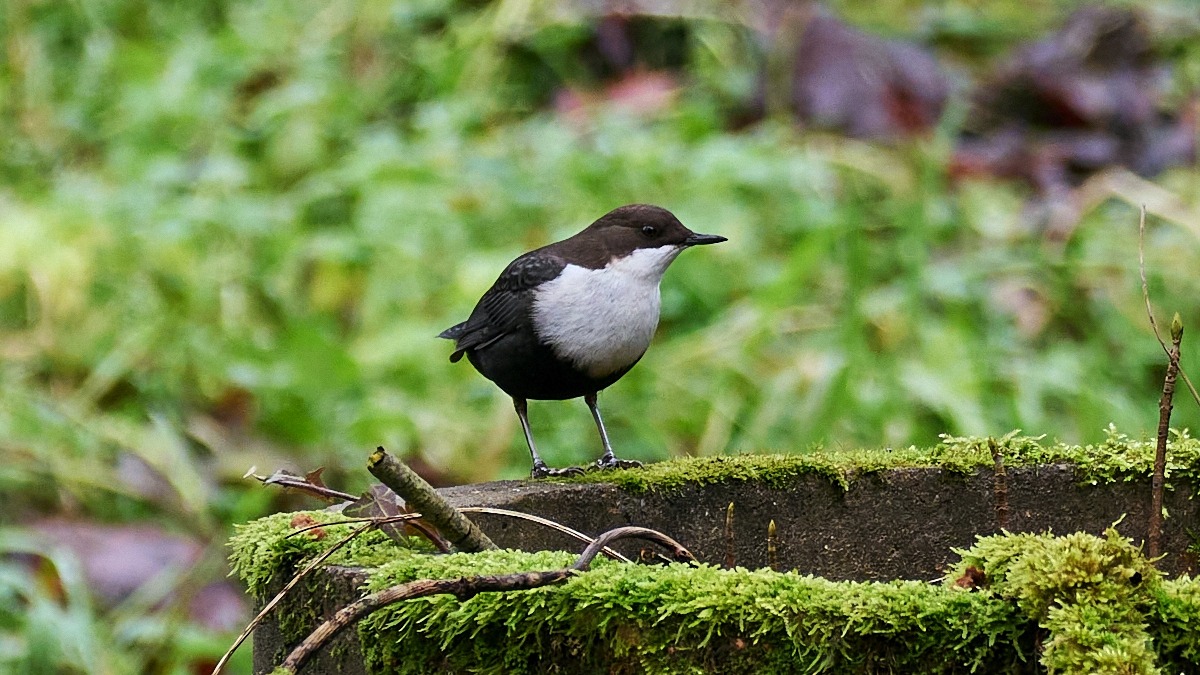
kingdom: Animalia
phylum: Chordata
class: Aves
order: Passeriformes
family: Cinclidae
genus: Cinclus
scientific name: Cinclus cinclus
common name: Vandstær
